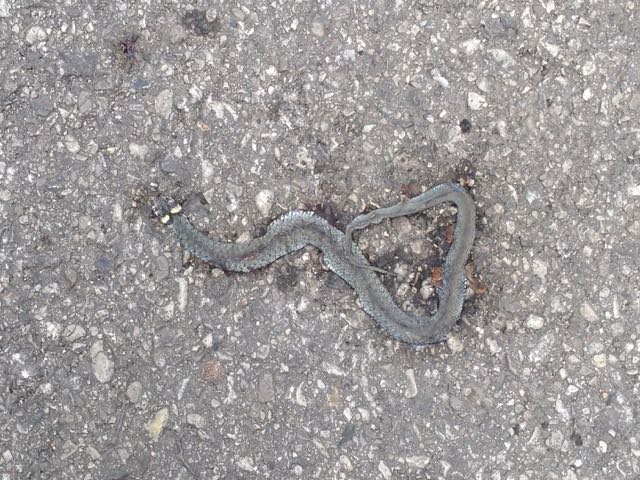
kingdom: Animalia
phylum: Chordata
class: Squamata
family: Colubridae
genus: Natrix
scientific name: Natrix natrix
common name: Grass snake
